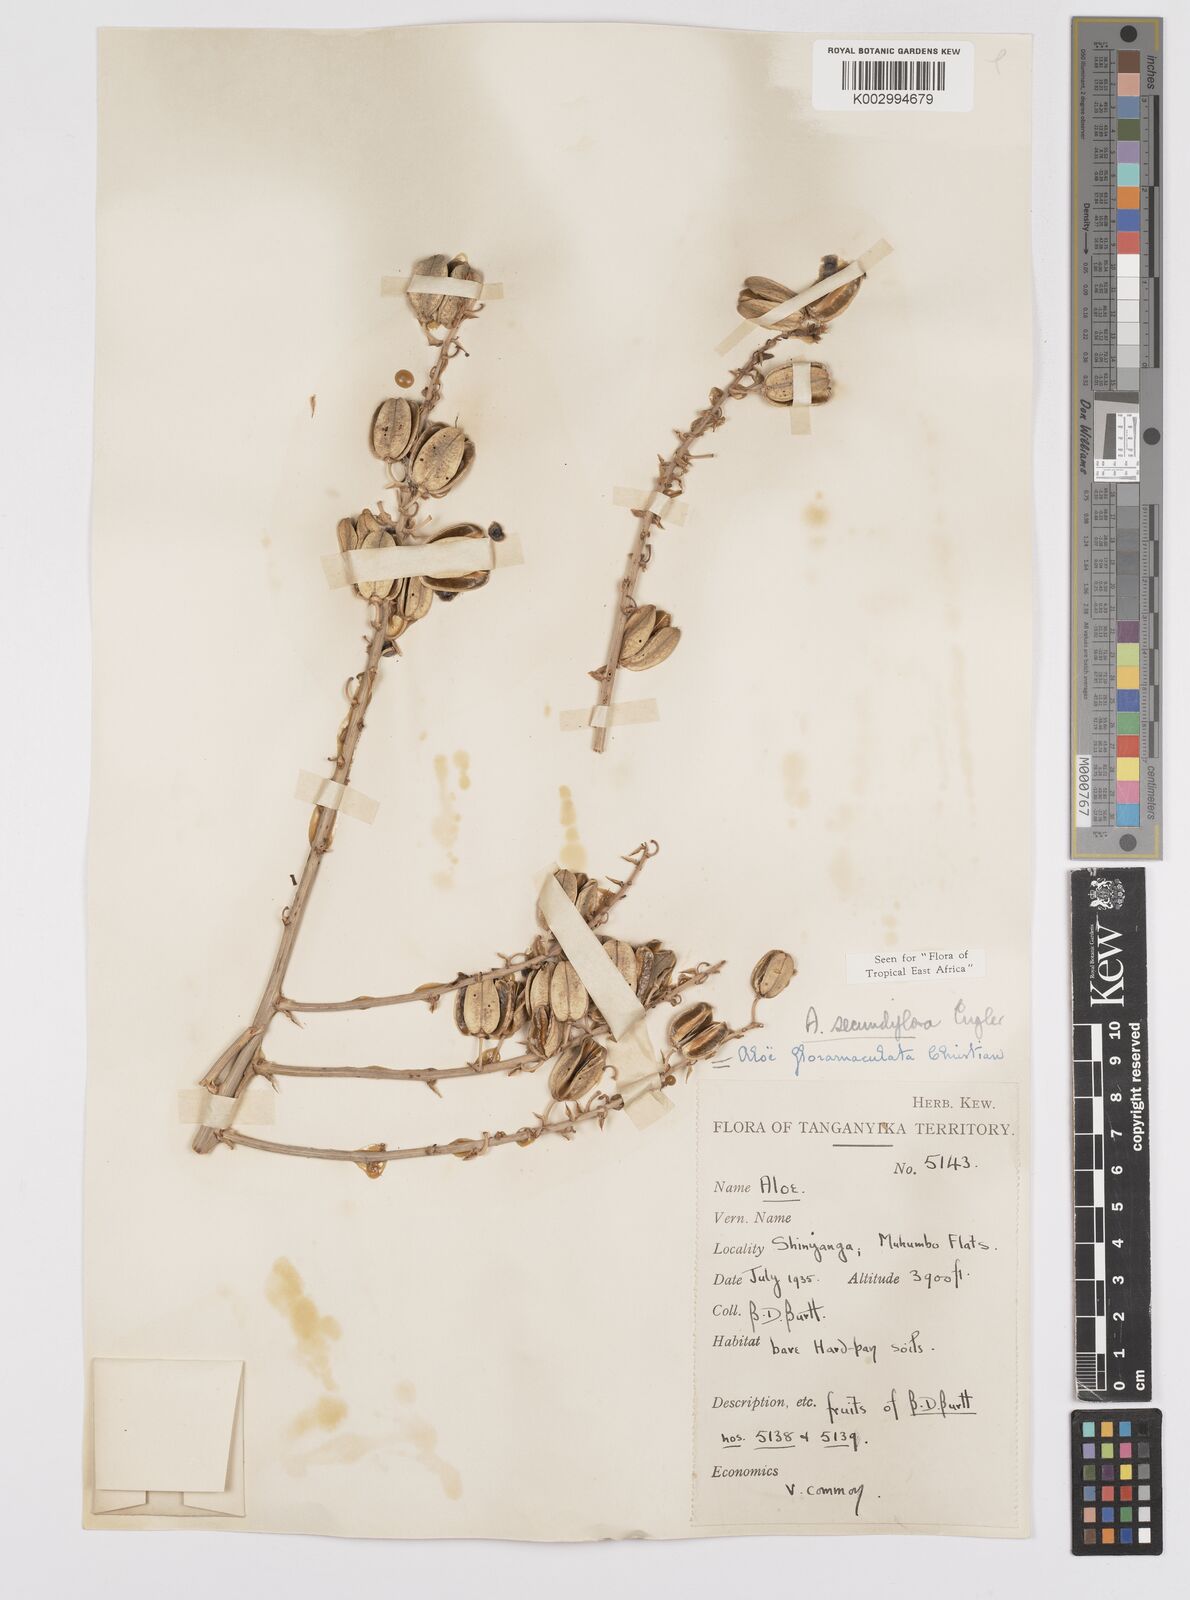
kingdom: Plantae
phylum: Tracheophyta
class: Liliopsida
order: Asparagales
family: Asphodelaceae
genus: Aloe
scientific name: Aloe secundiflora
